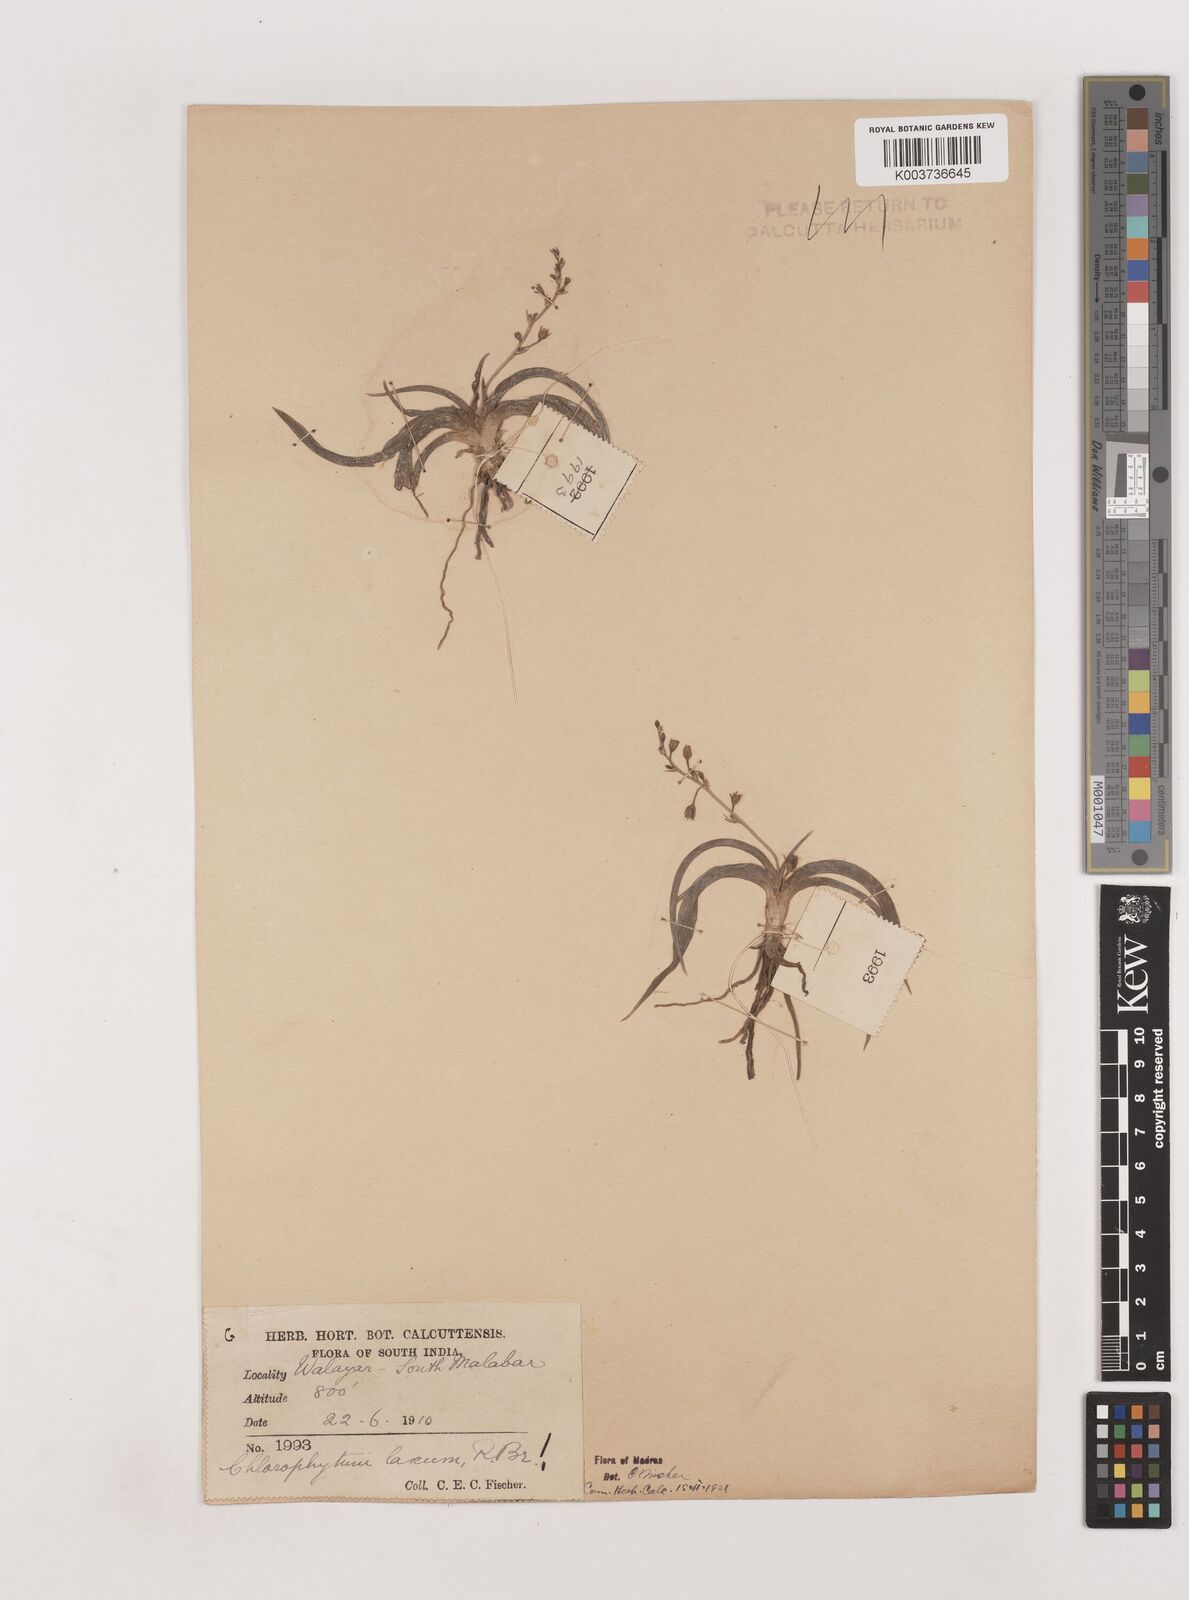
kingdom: Plantae
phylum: Tracheophyta
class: Liliopsida
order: Asparagales
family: Asparagaceae
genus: Chlorophytum
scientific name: Chlorophytum laxum
